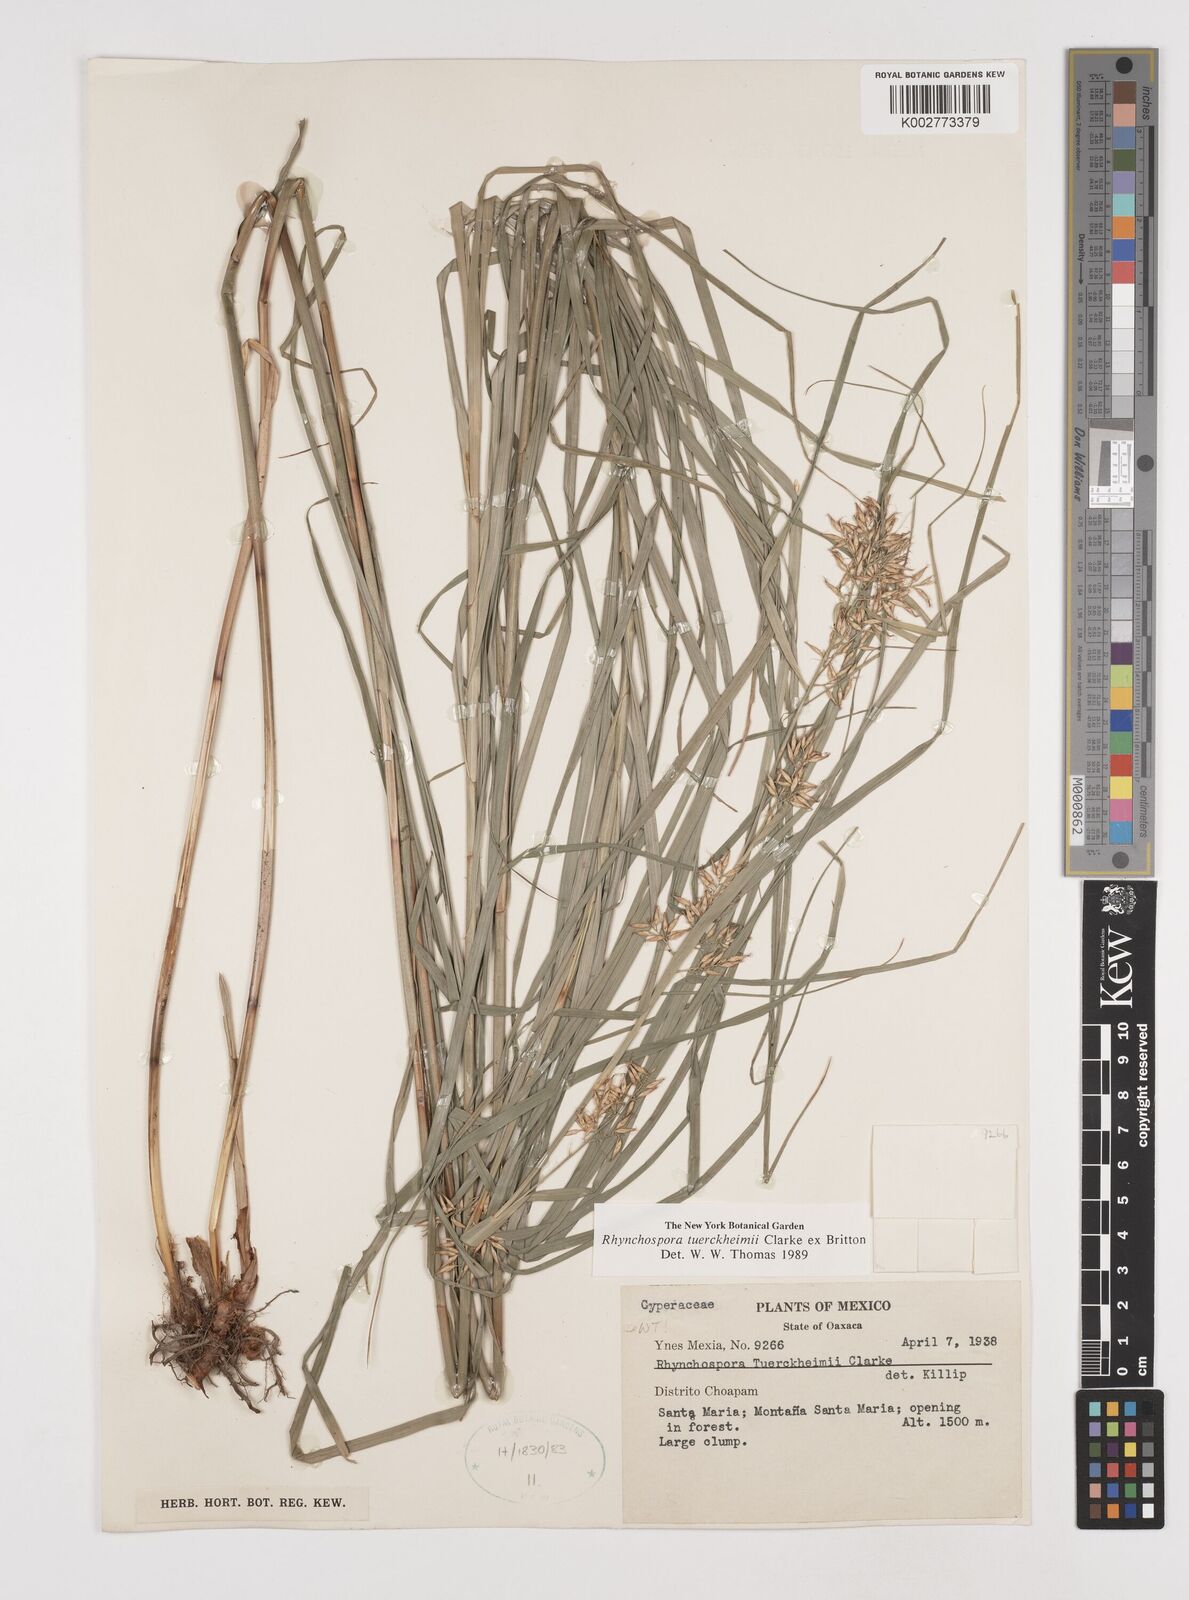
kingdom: Plantae
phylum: Tracheophyta
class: Liliopsida
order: Poales
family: Cyperaceae
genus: Rhynchospora
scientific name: Rhynchospora tuerckheimii
